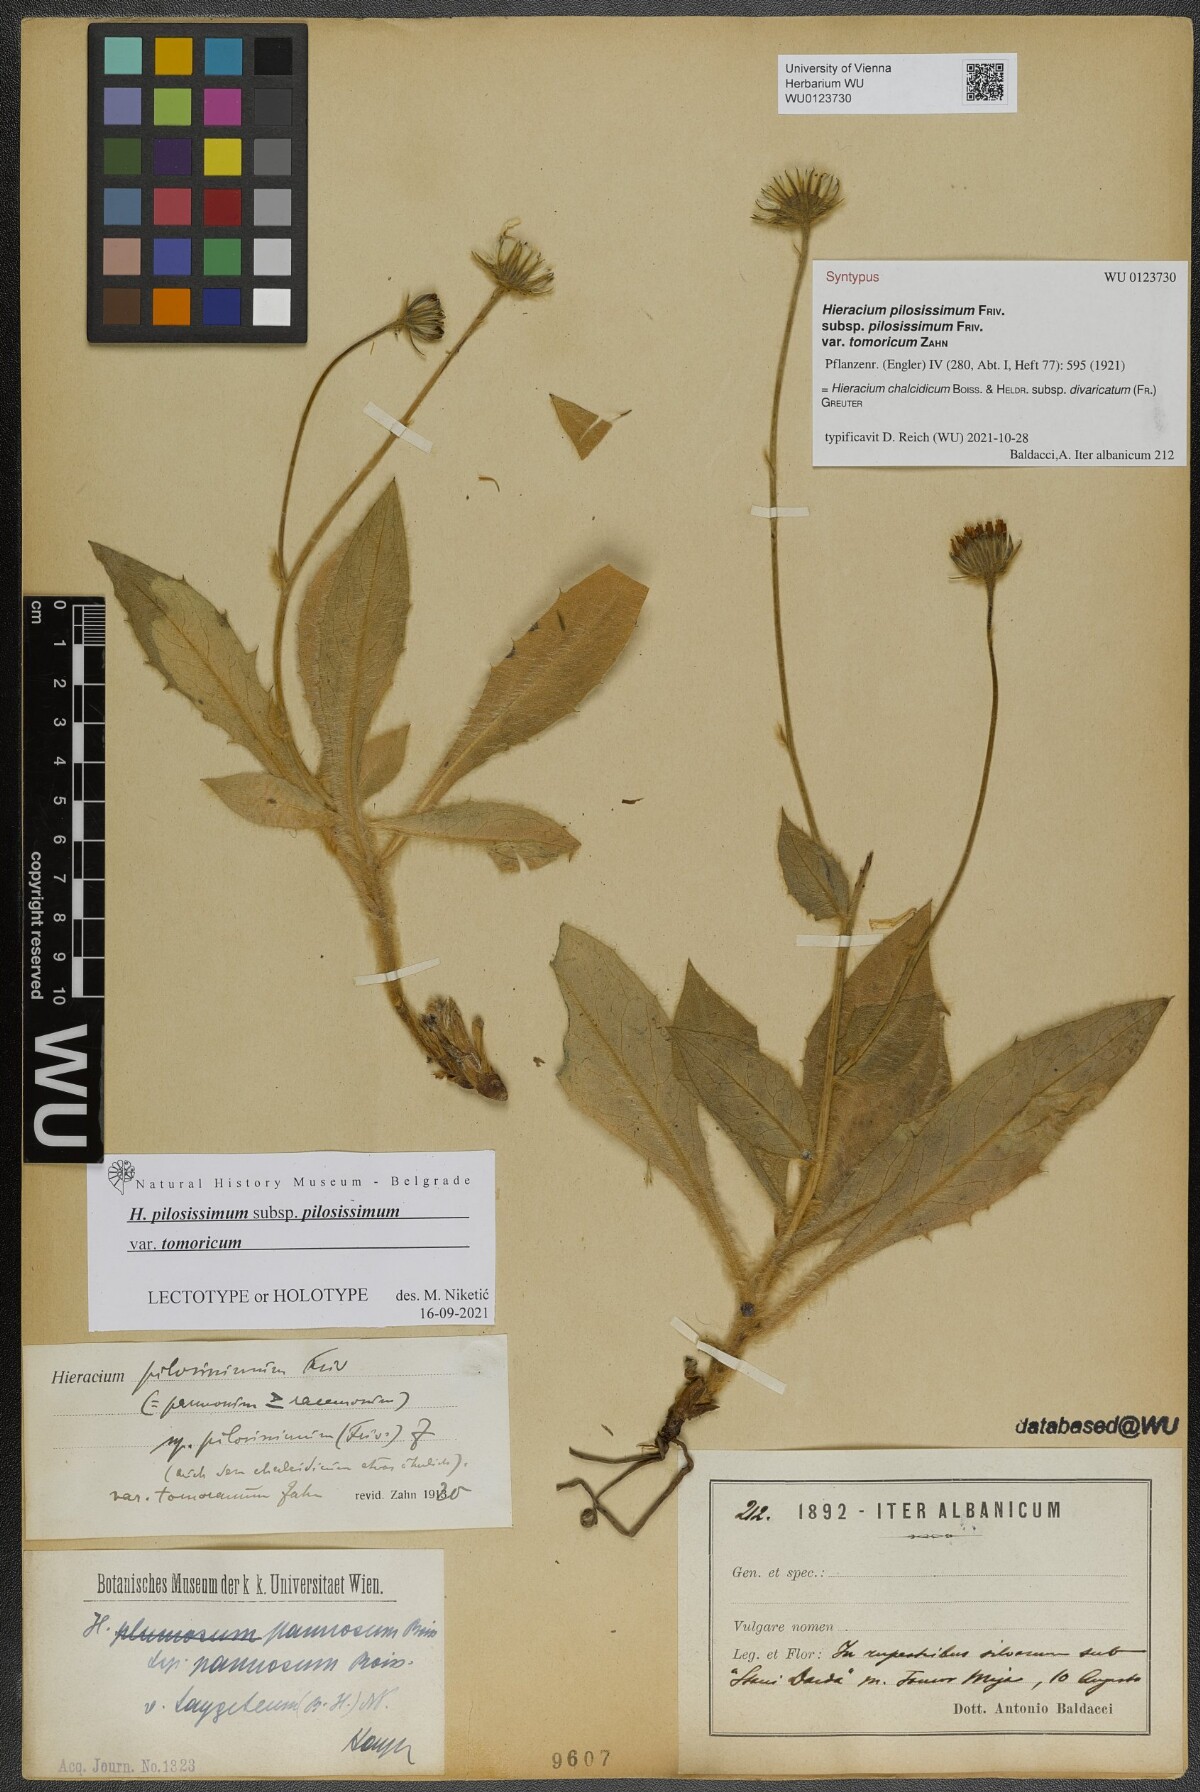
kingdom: Plantae
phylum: Tracheophyta
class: Magnoliopsida
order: Asterales
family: Asteraceae
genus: Hieracium
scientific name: Hieracium pilosissimum
